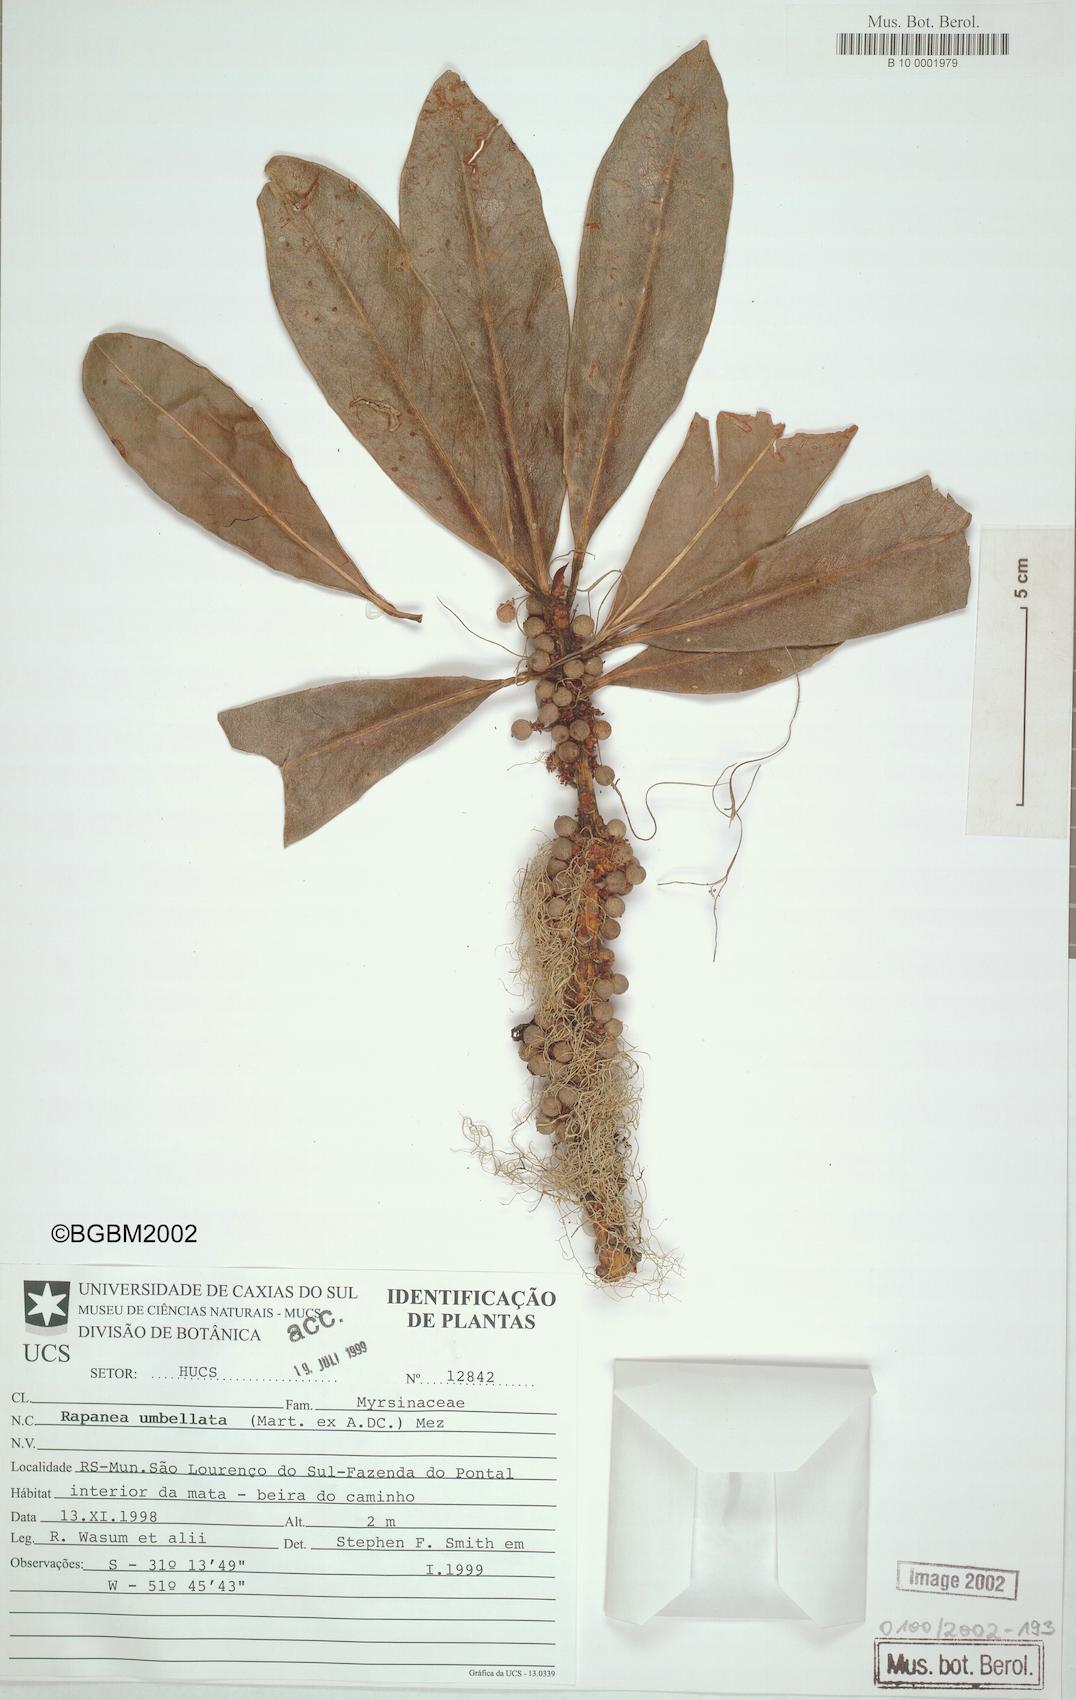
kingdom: Plantae
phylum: Tracheophyta
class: Magnoliopsida
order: Ericales
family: Primulaceae
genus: Myrsine
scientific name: Myrsine umbellata
